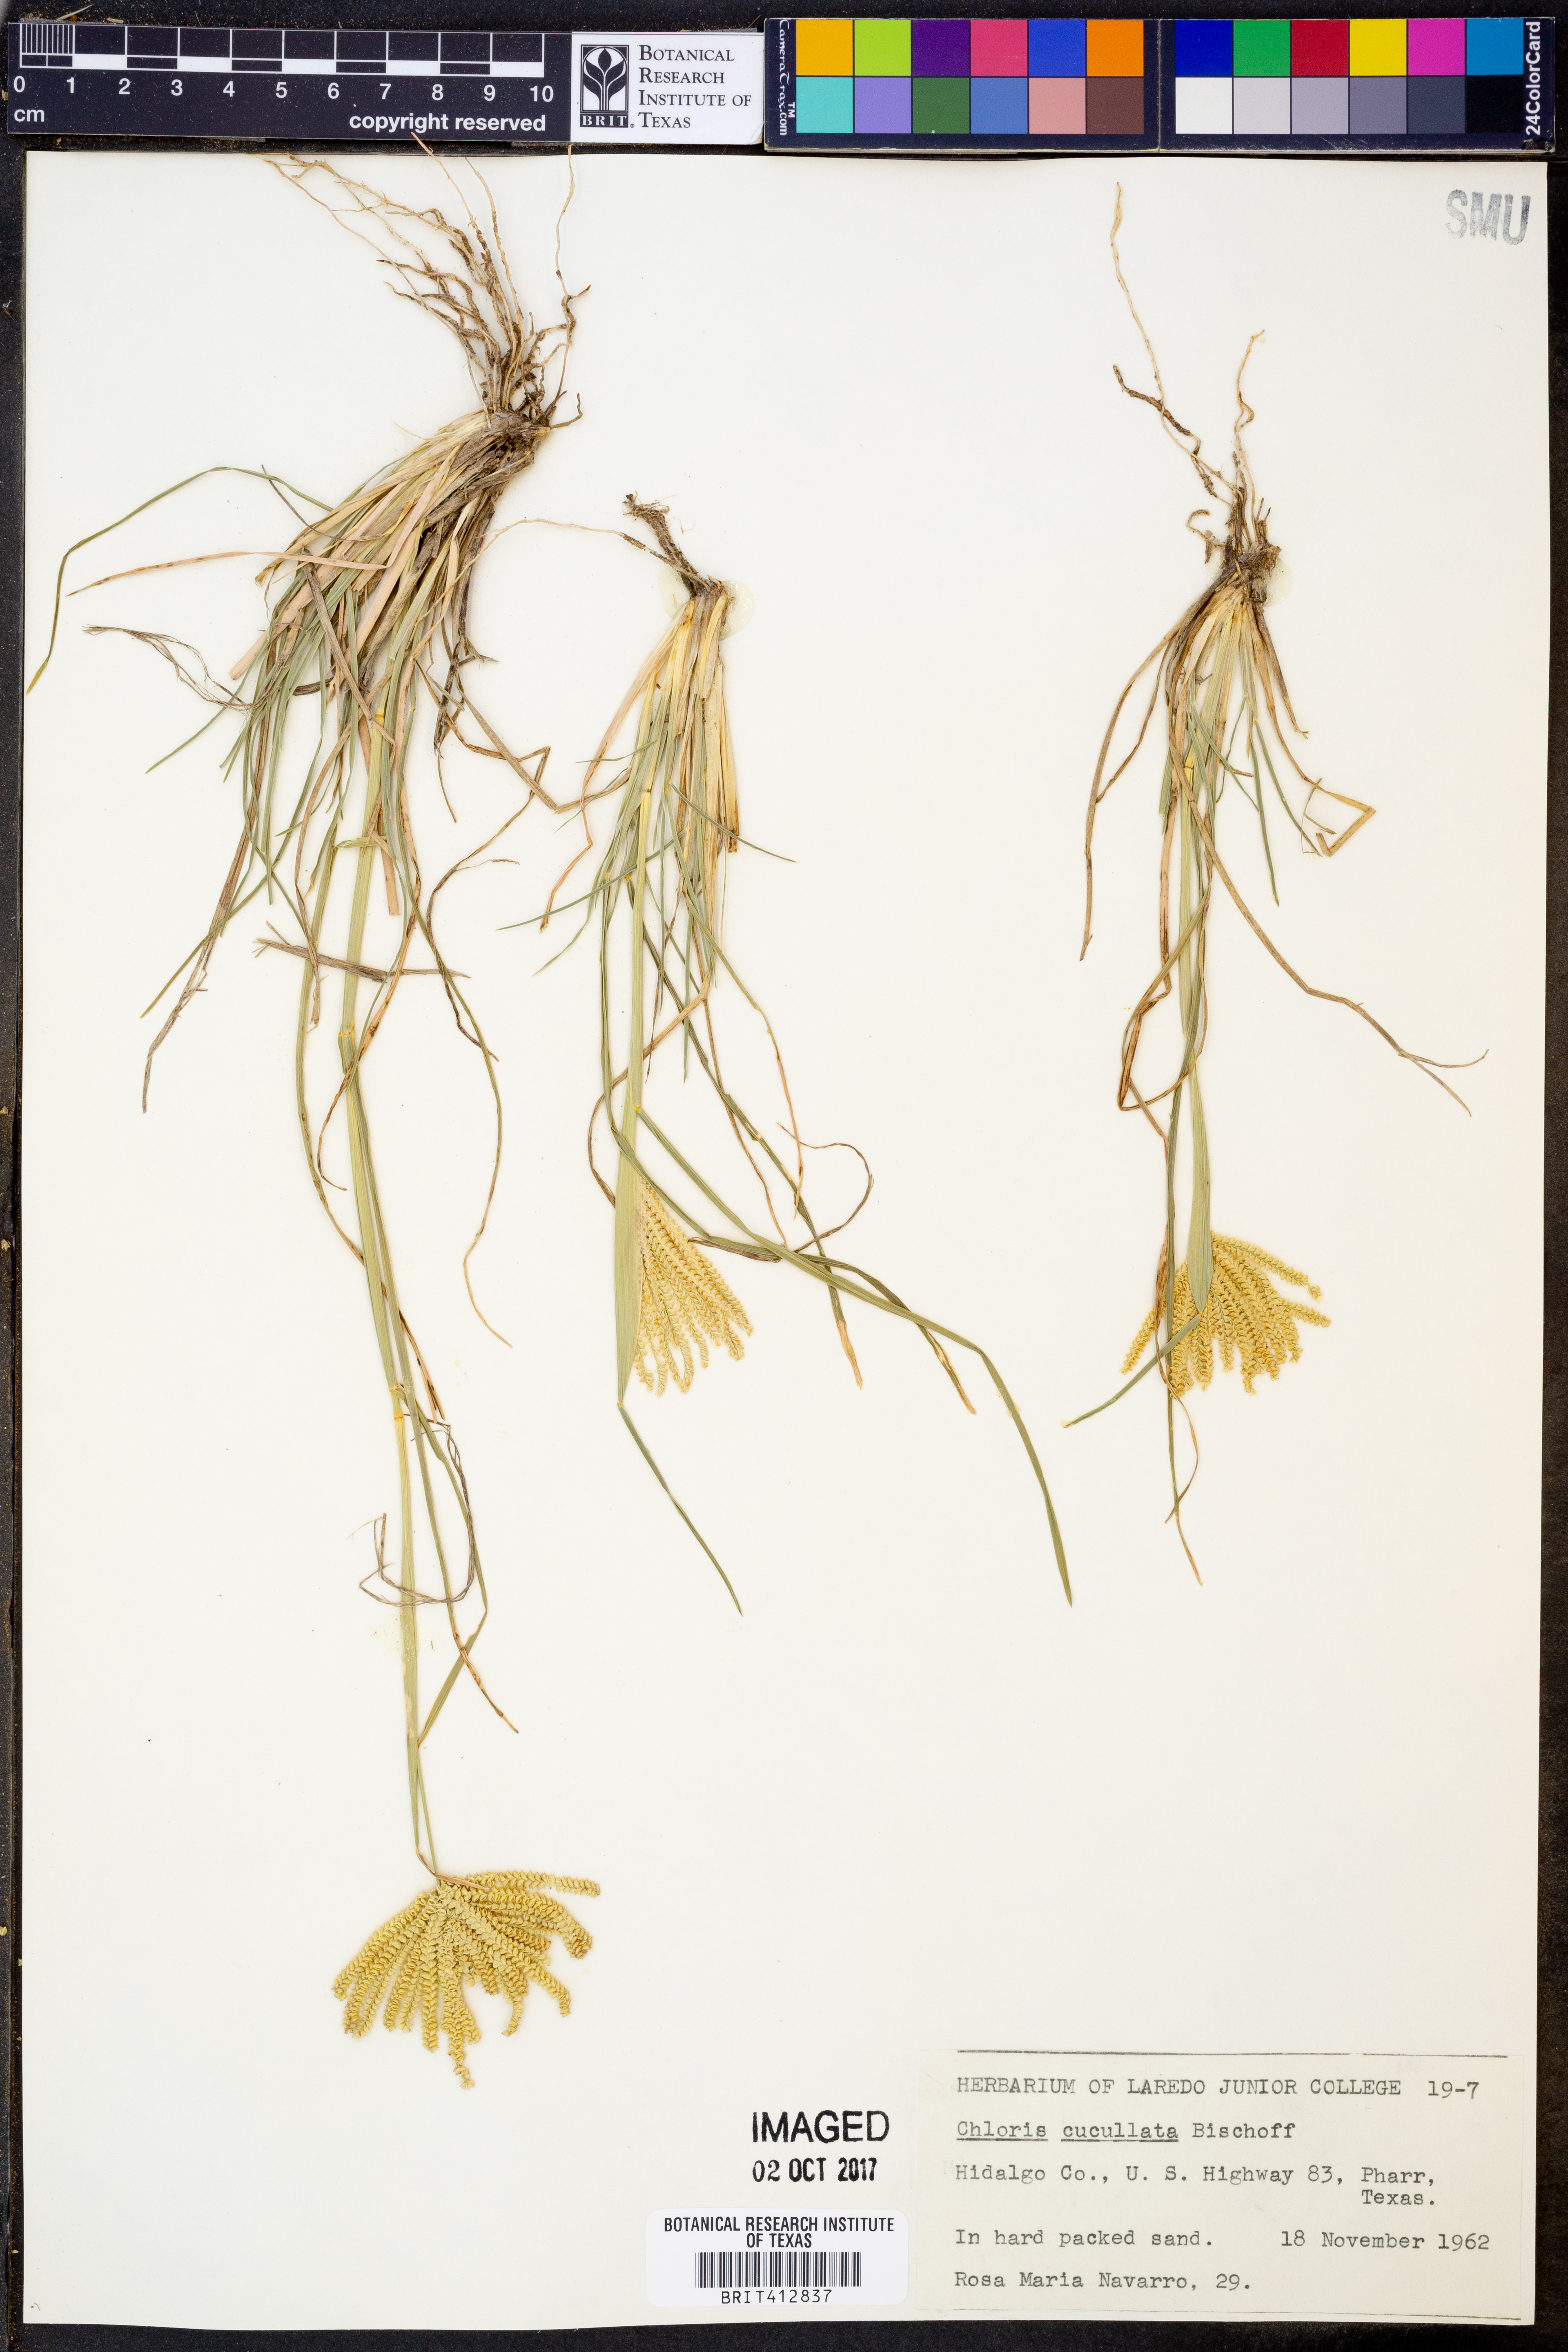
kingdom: Plantae
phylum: Tracheophyta
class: Liliopsida
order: Poales
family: Poaceae
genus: Chloris
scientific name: Chloris cucullata
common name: Hooded windmill grass
